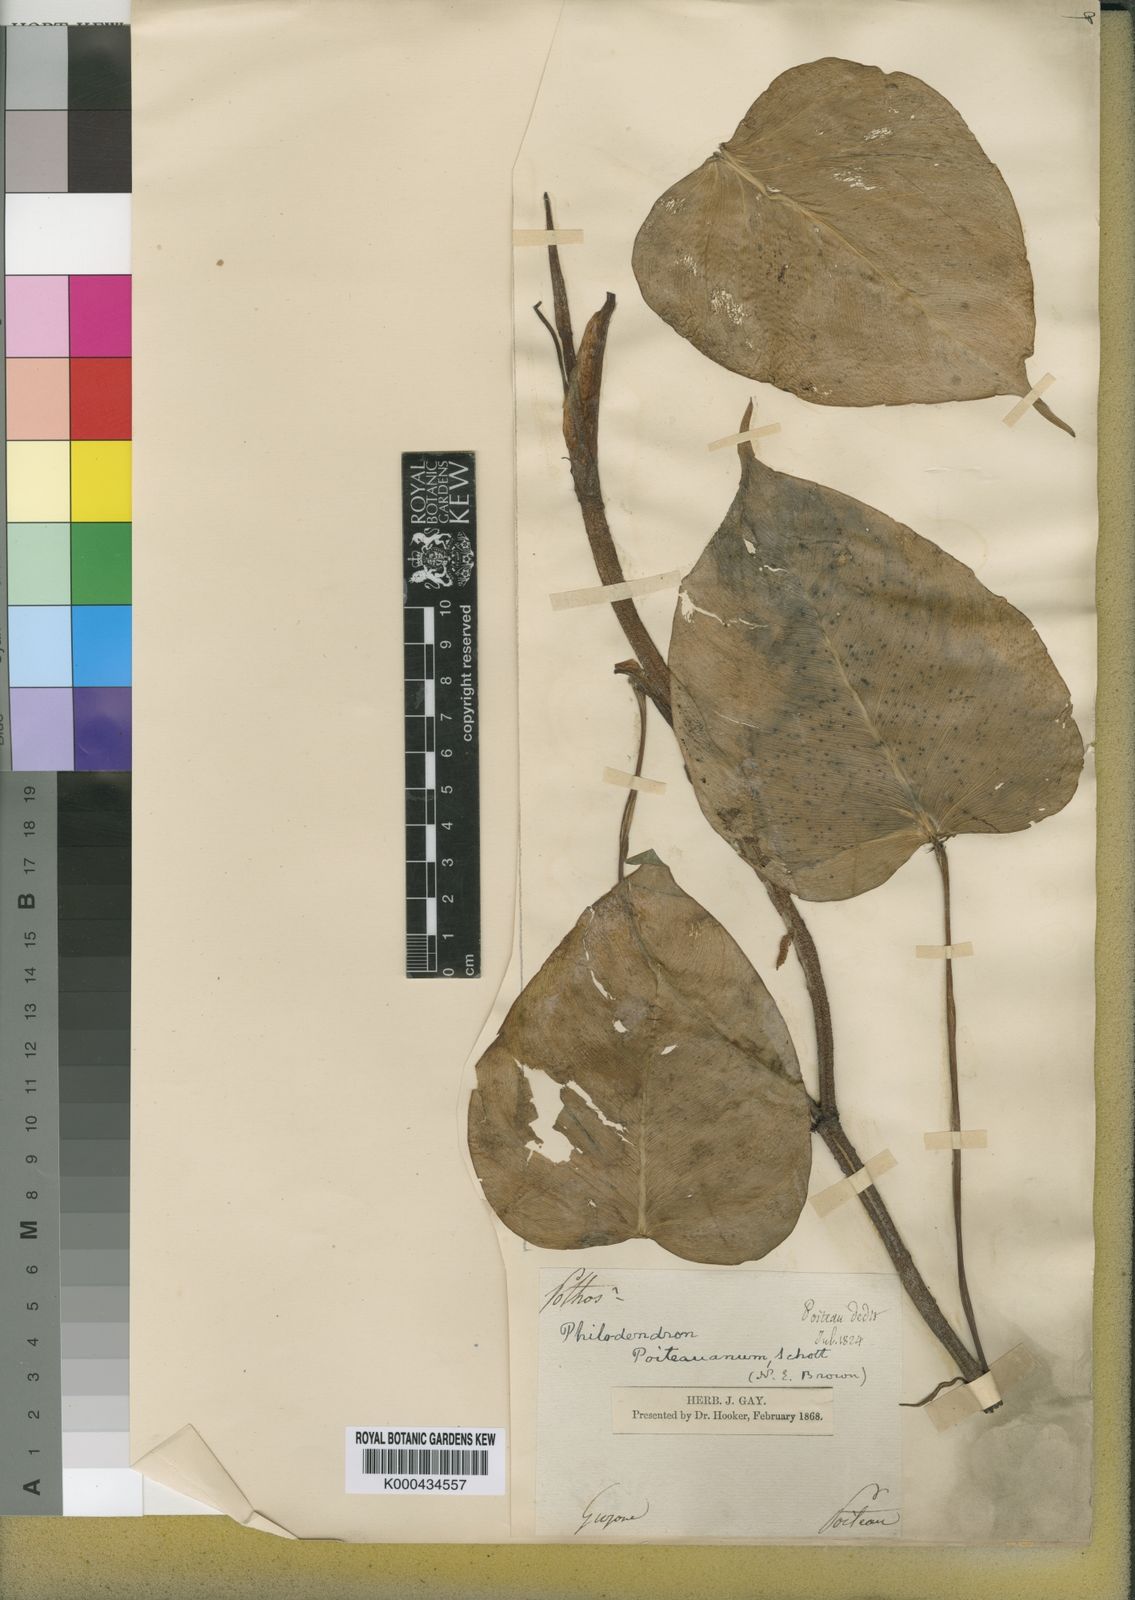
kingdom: Plantae
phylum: Tracheophyta
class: Liliopsida
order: Alismatales
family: Araceae
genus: Philodendron
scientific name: Philodendron ecordatum
